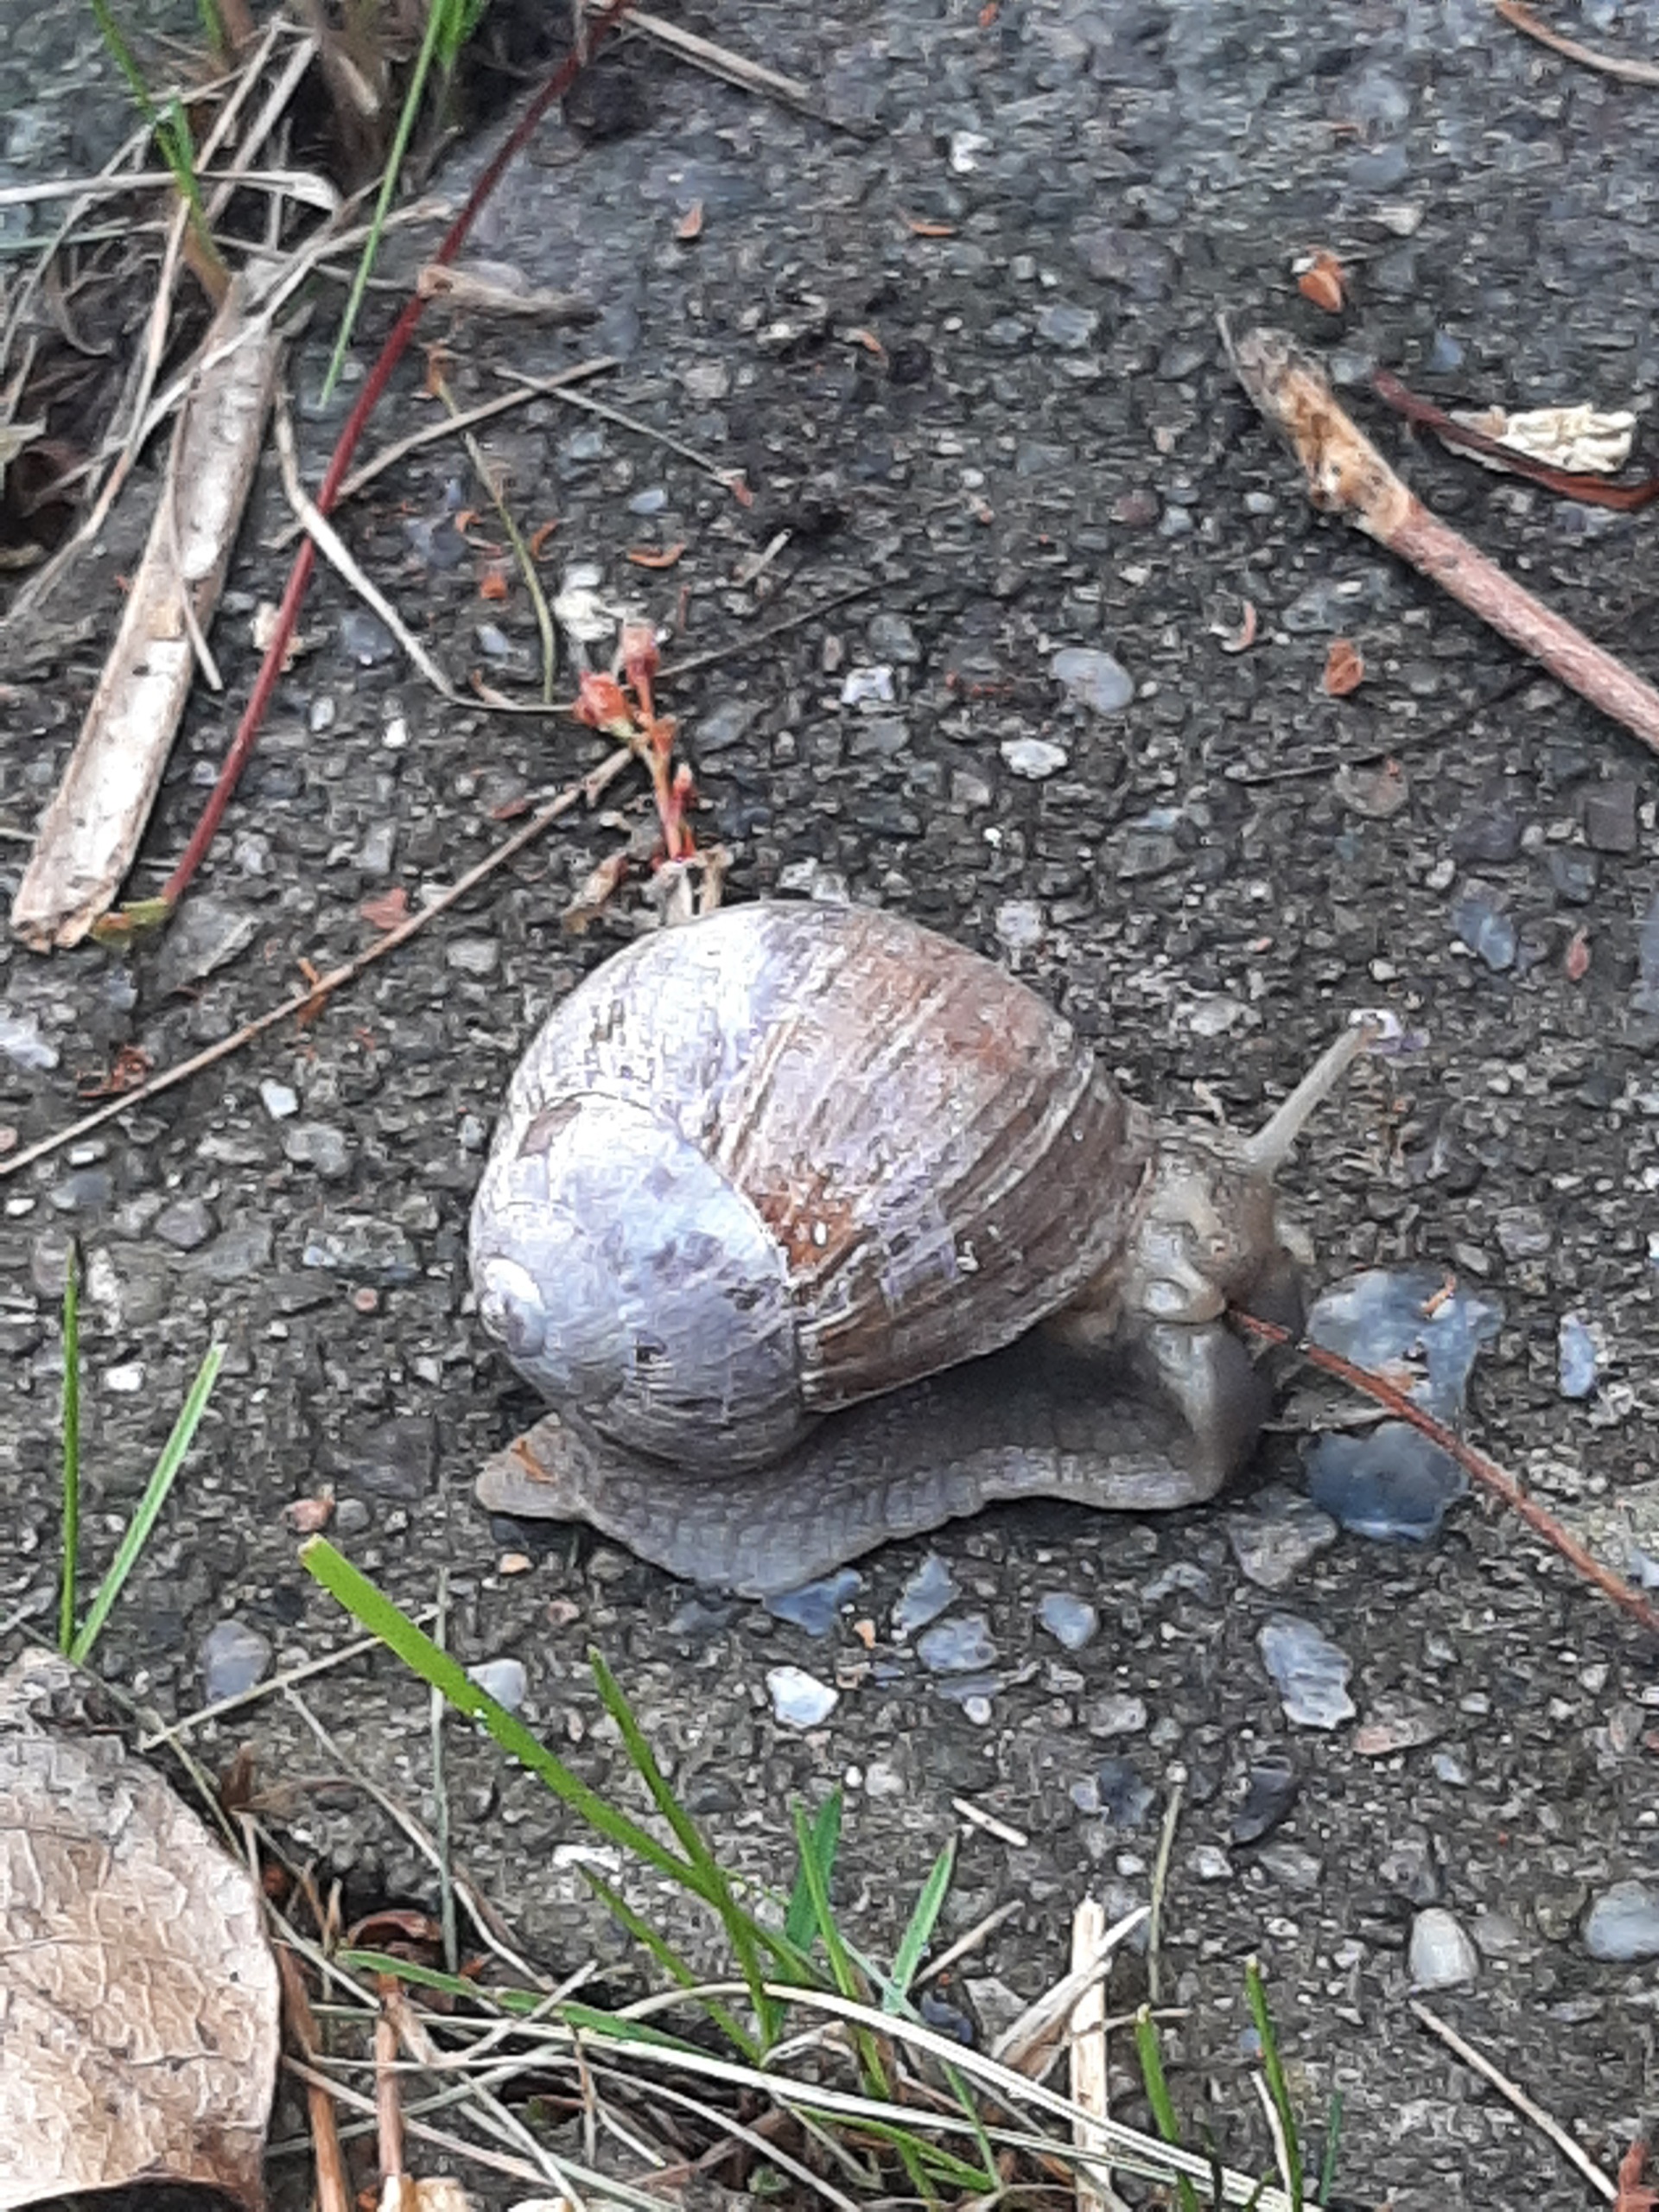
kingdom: Animalia
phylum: Mollusca
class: Gastropoda
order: Stylommatophora
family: Helicidae
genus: Helix
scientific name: Helix pomatia
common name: Vinbjergsnegl
